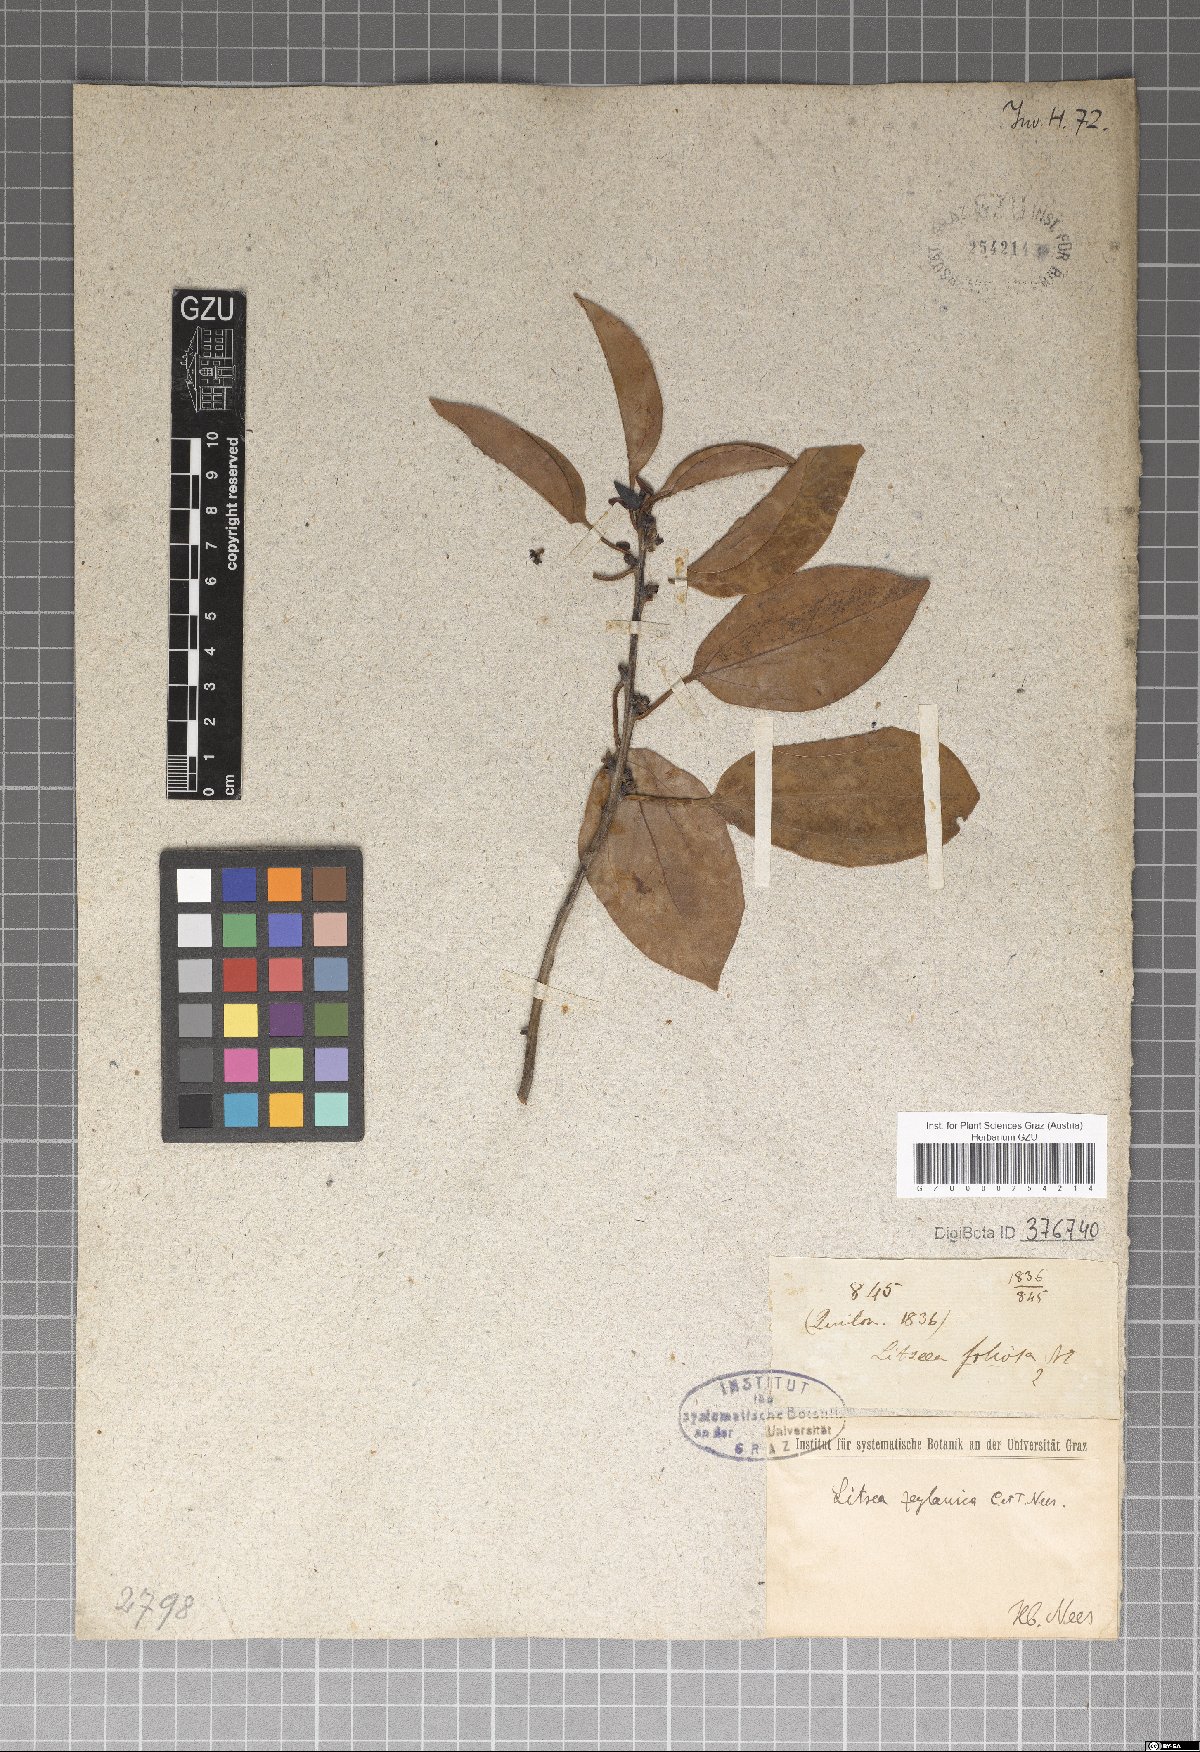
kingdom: Plantae
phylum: Tracheophyta
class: Magnoliopsida
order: Laurales
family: Lauraceae
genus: Neolitsea
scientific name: Neolitsea cassia
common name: Laurel
